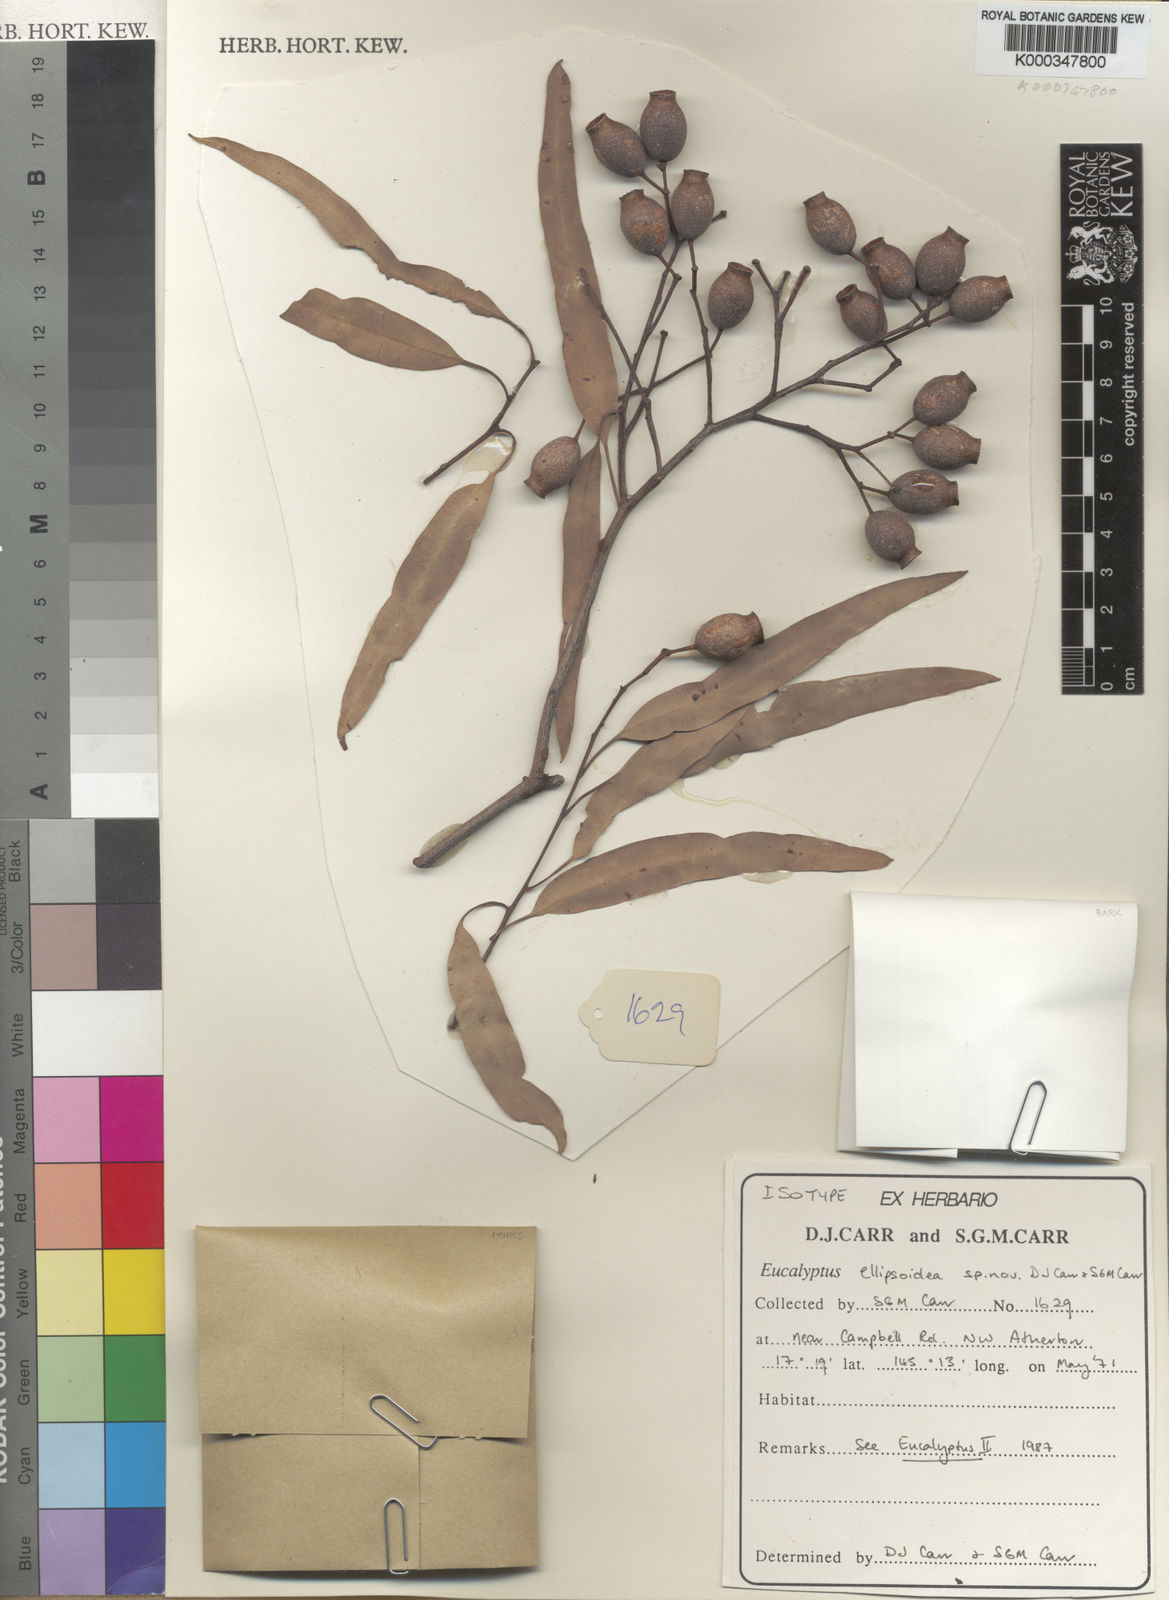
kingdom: Plantae
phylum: Tracheophyta
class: Magnoliopsida
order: Myrtales
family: Myrtaceae
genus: Corymbia
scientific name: Corymbia ellipsoidea
